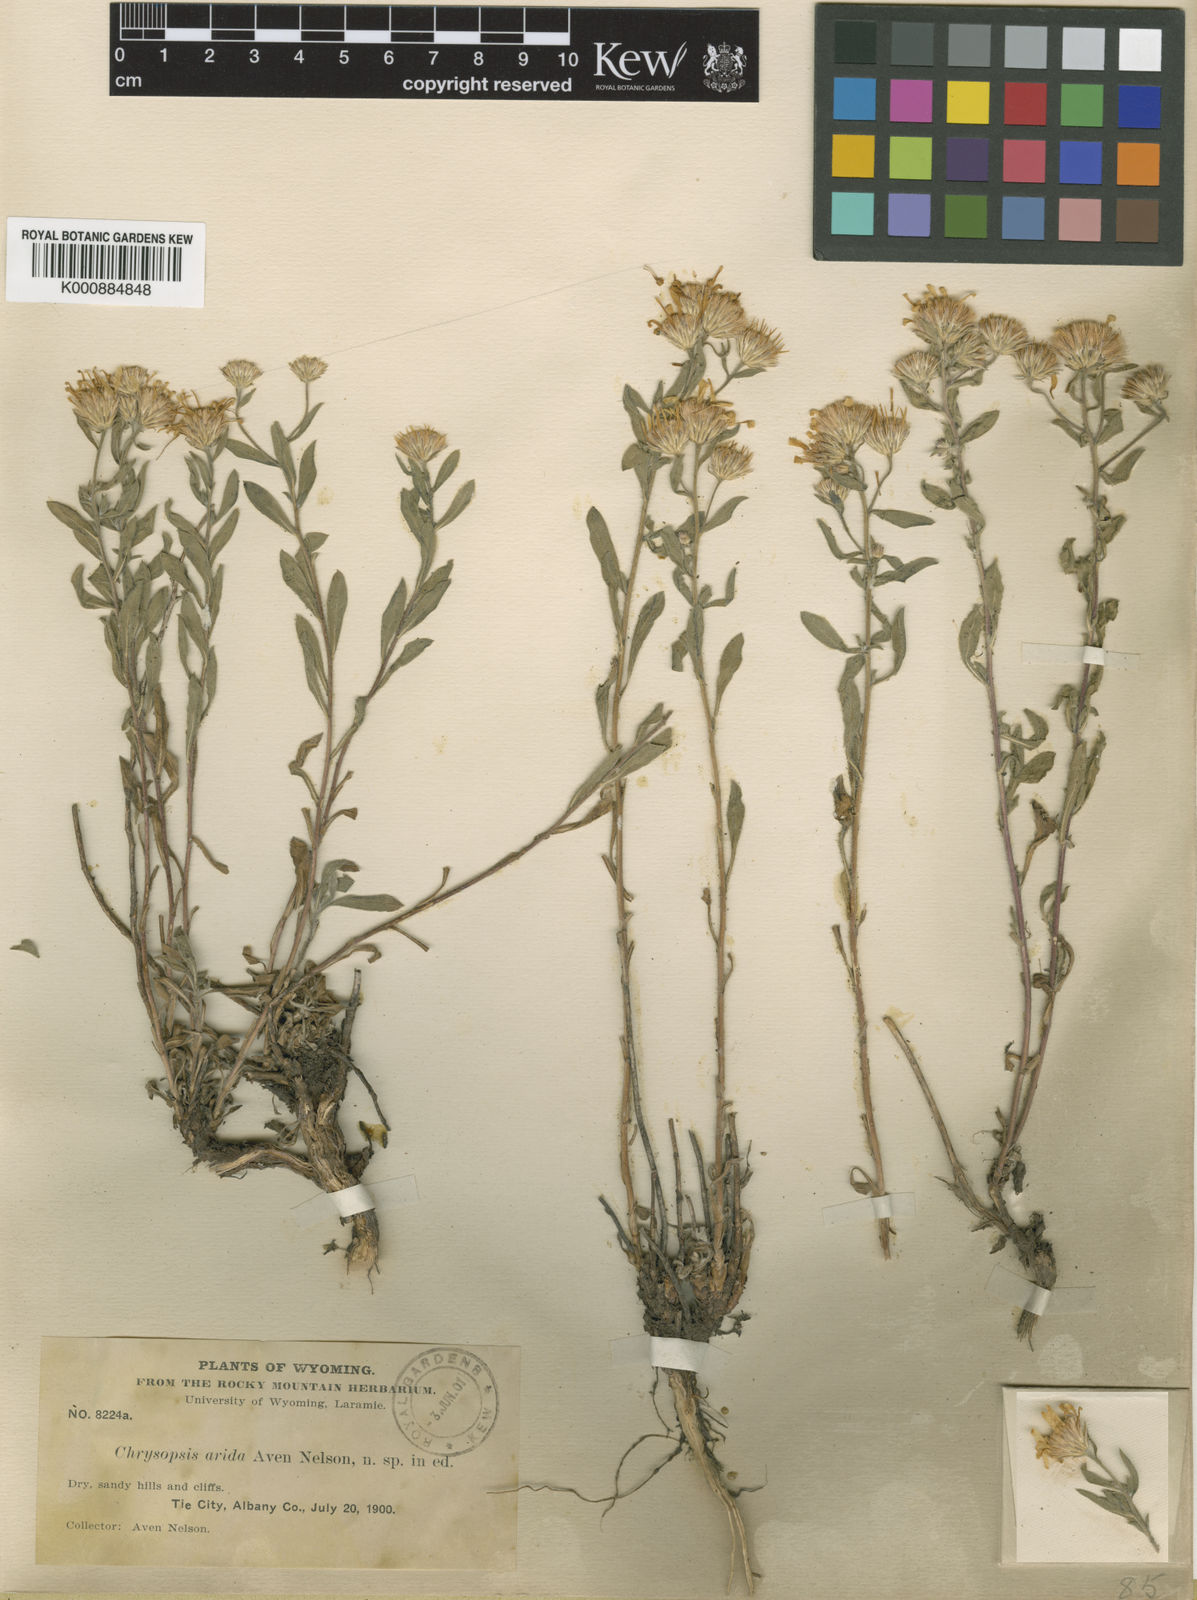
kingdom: Plantae
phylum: Tracheophyta
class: Magnoliopsida
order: Asterales
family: Asteraceae
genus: Heterotheca
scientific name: Heterotheca
